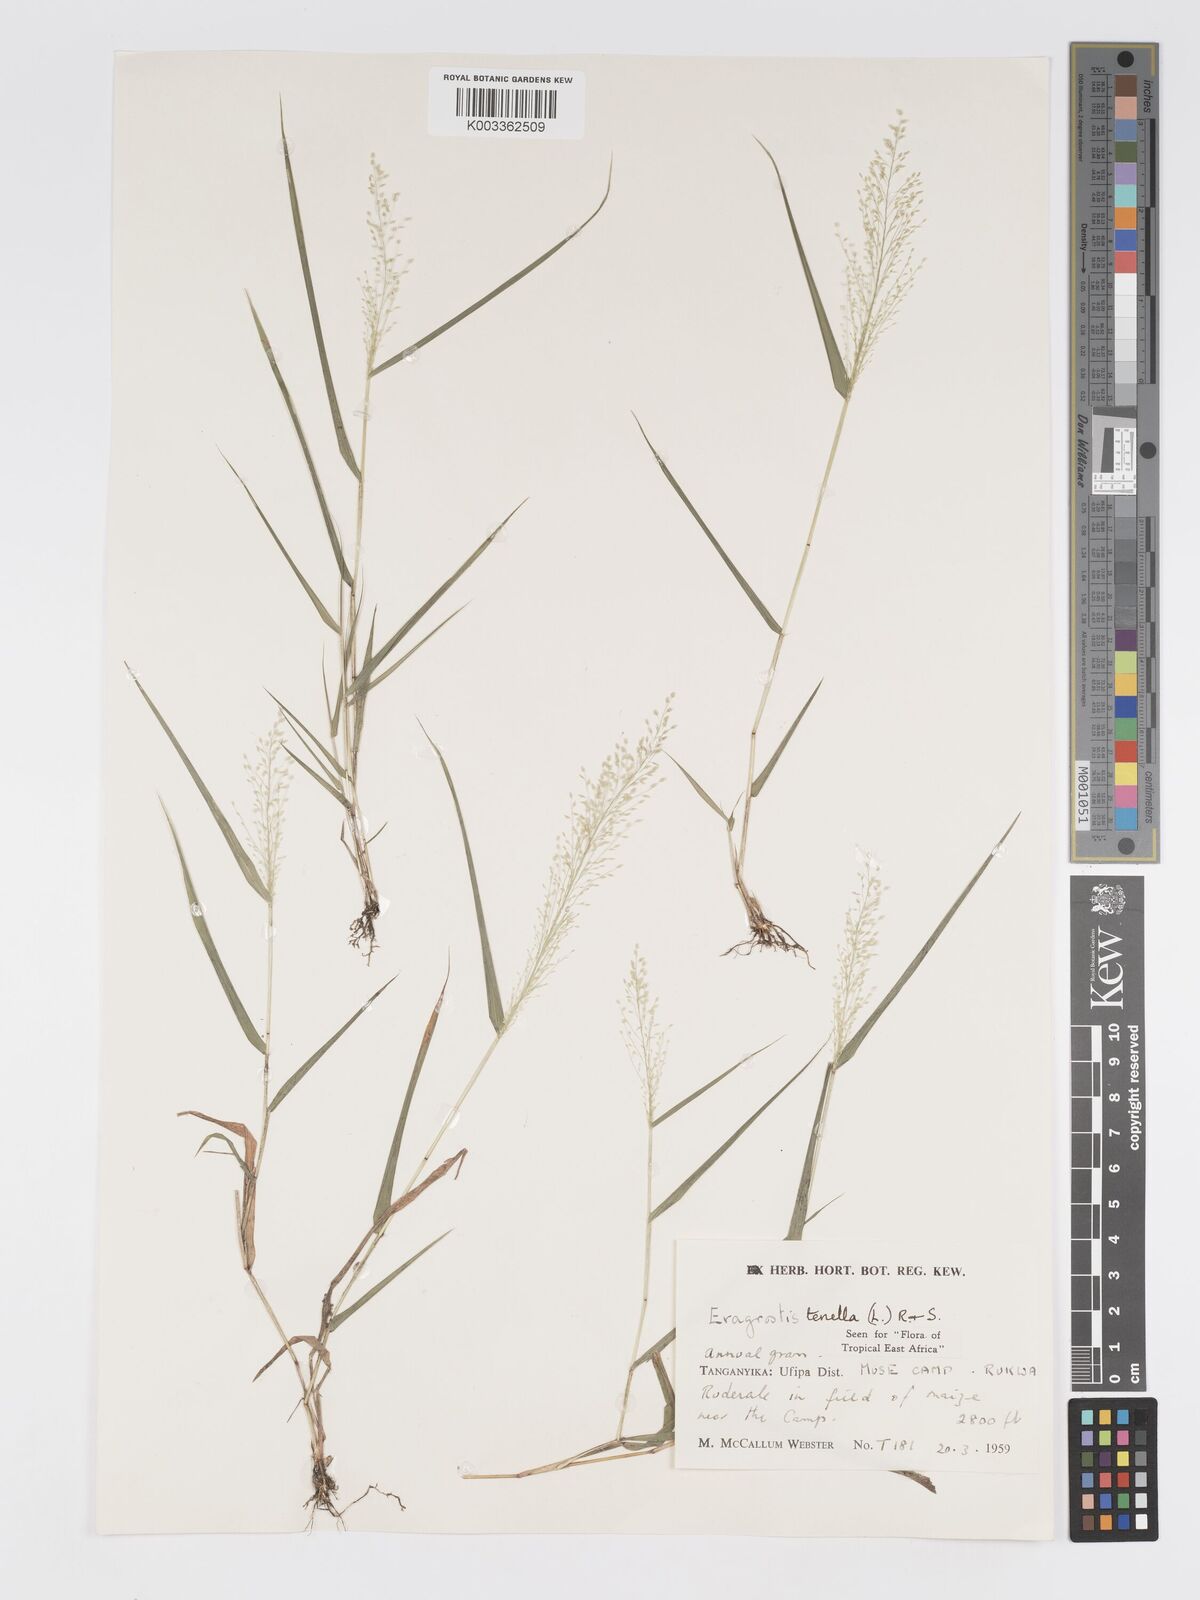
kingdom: Plantae
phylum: Tracheophyta
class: Liliopsida
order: Poales
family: Poaceae
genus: Eragrostis
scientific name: Eragrostis tenella
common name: Japanese lovegrass
